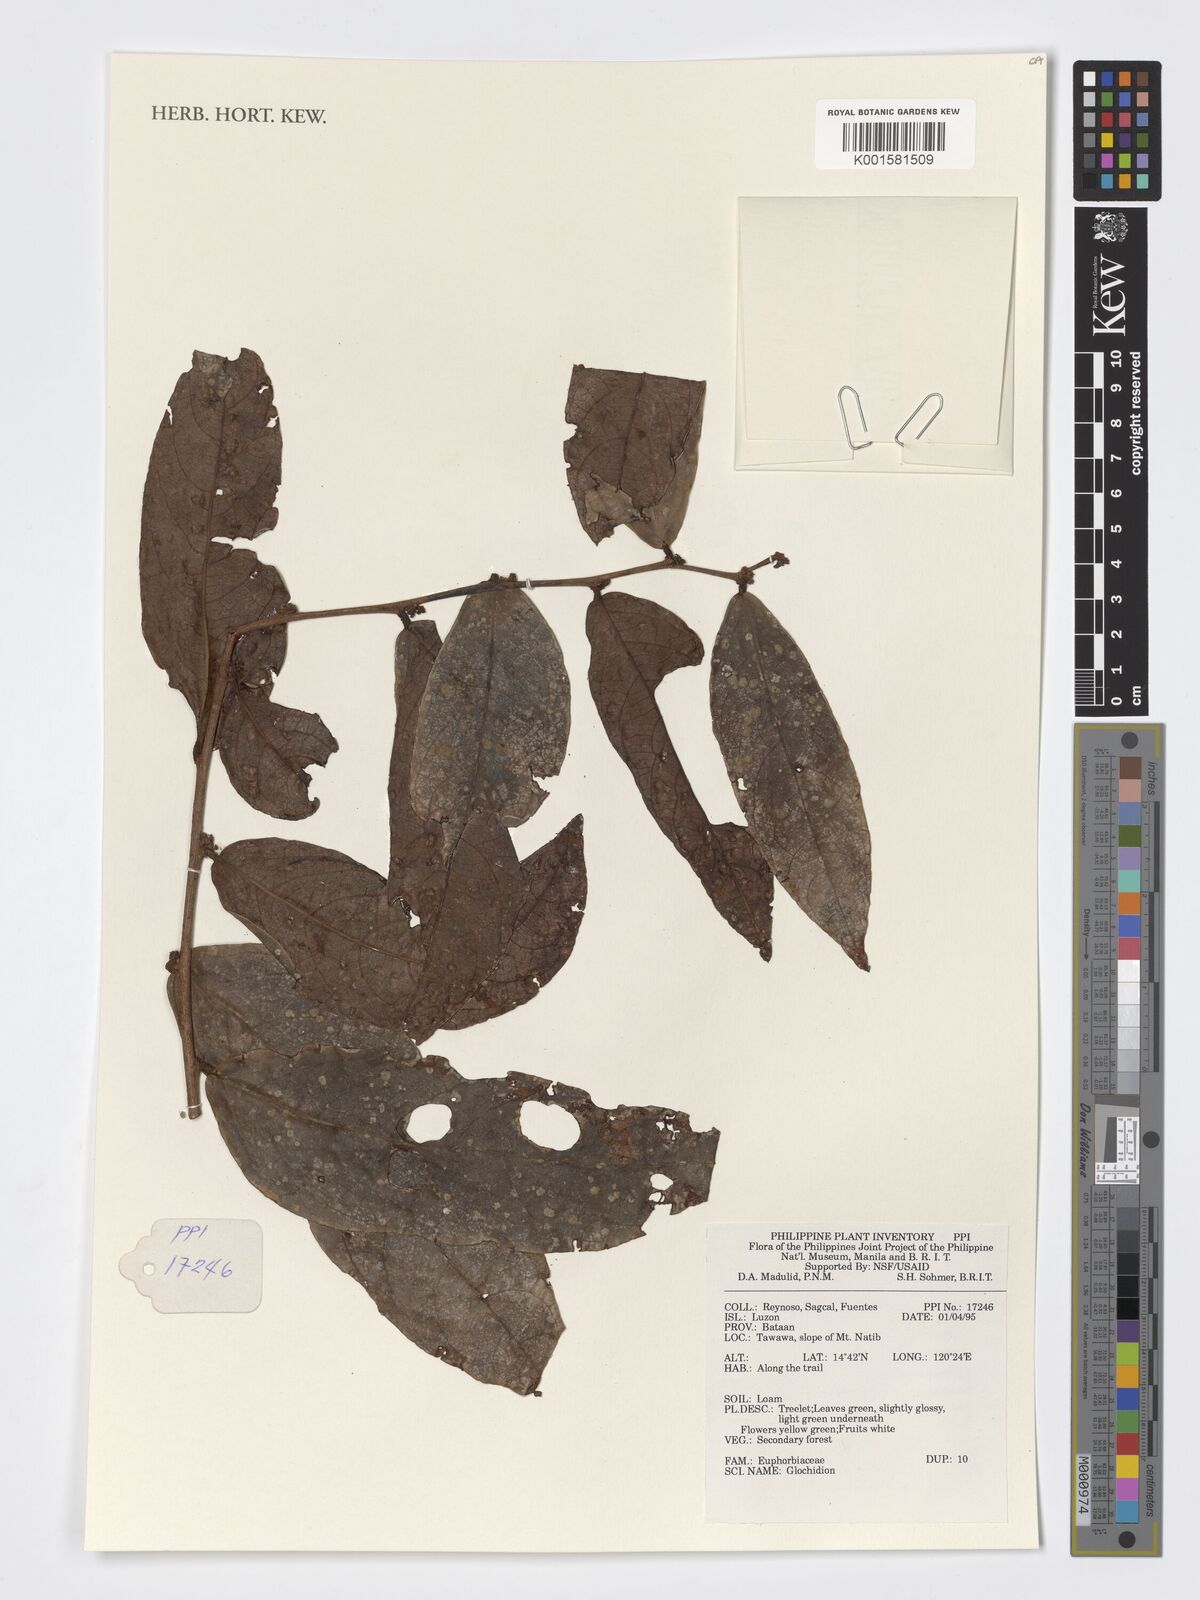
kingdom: Plantae
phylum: Tracheophyta
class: Magnoliopsida
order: Malpighiales
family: Phyllanthaceae
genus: Glochidion
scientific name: Glochidion
